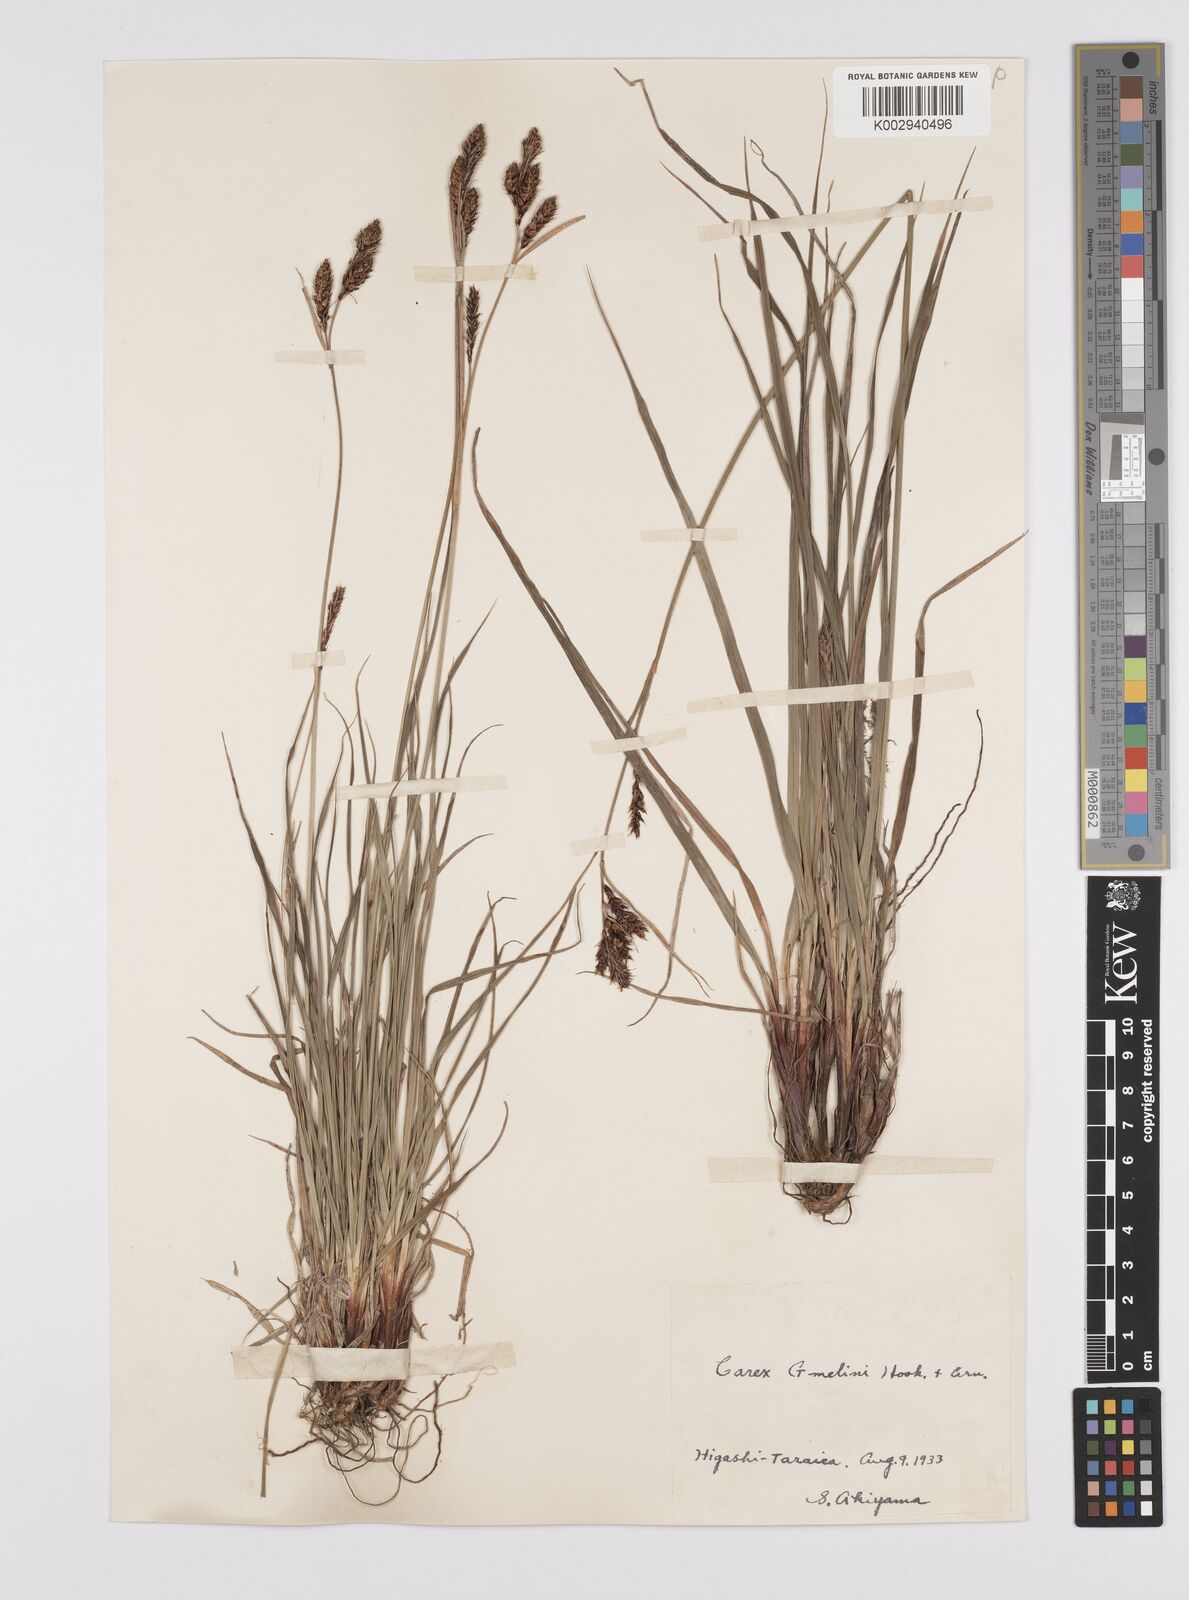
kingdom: Plantae
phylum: Tracheophyta
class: Liliopsida
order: Poales
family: Cyperaceae
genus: Carex
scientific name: Carex gmelinii
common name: Gmelin's sedge
